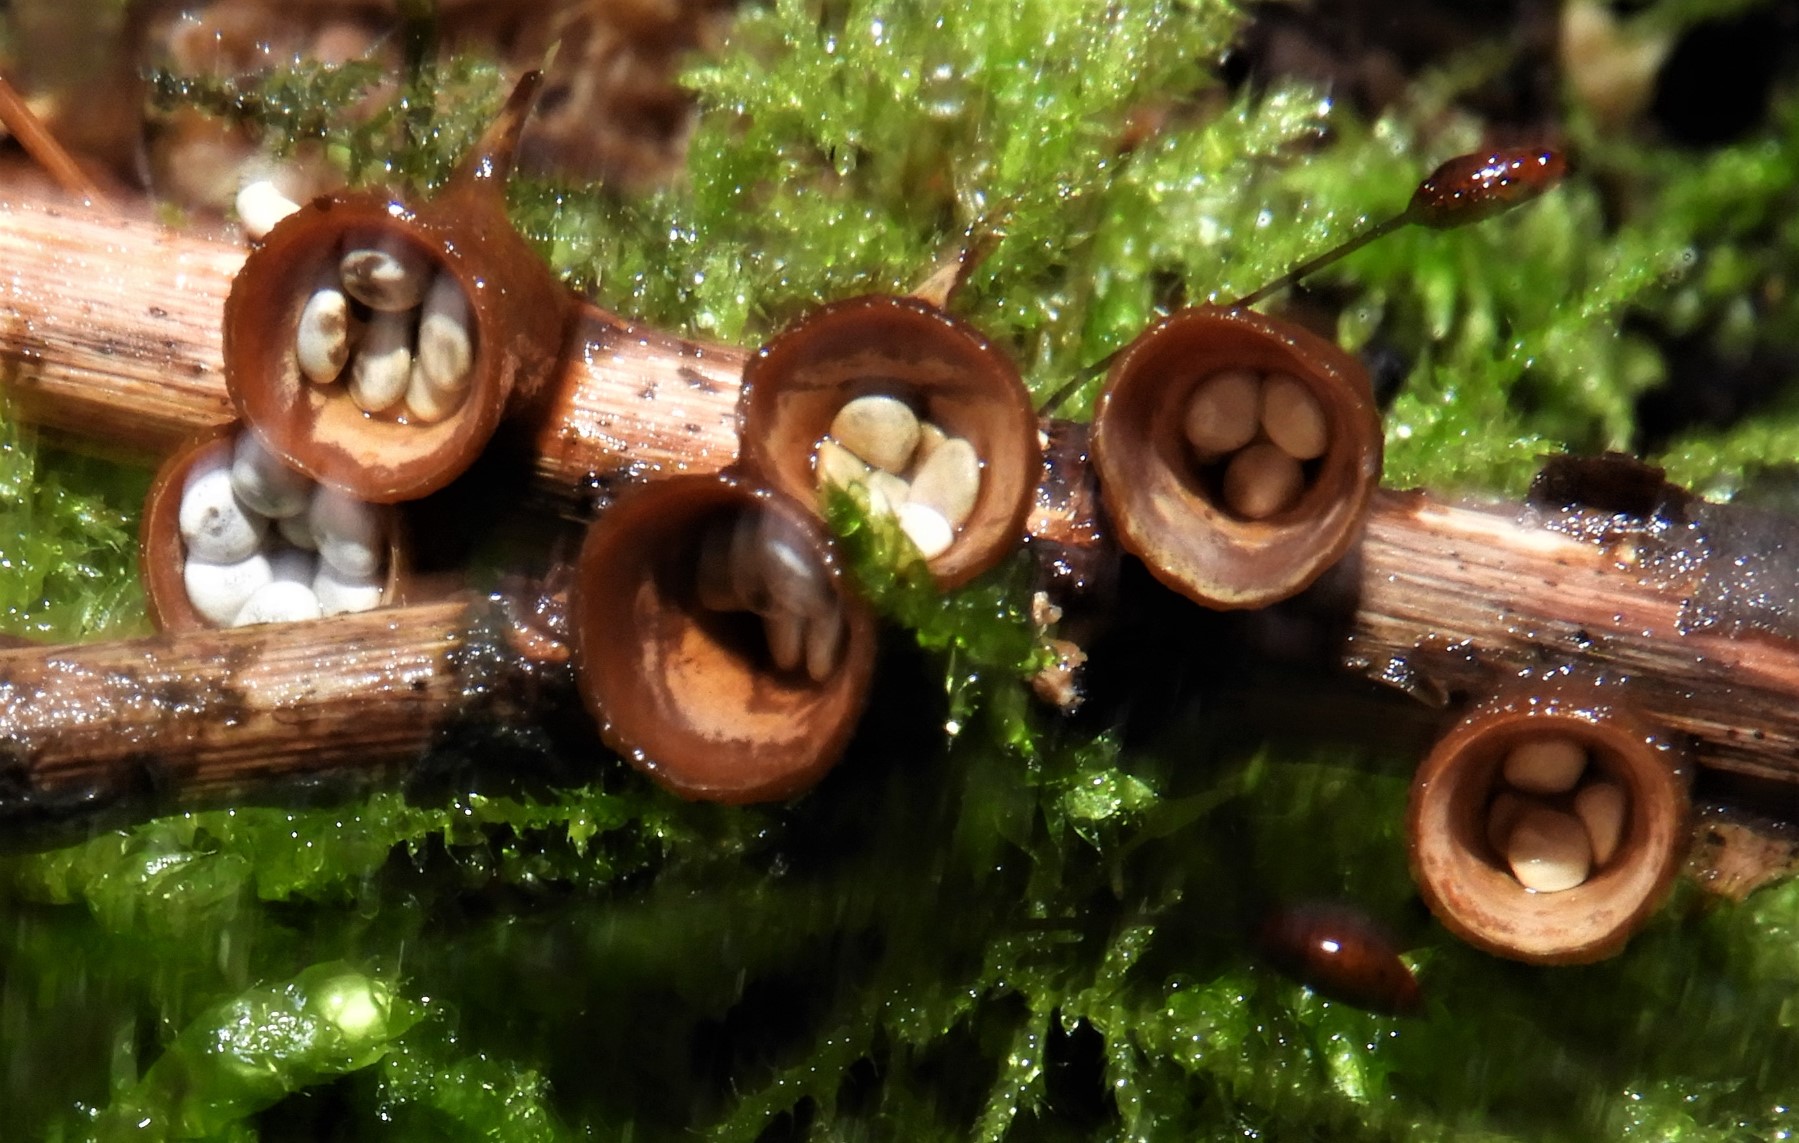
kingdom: Fungi
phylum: Basidiomycota
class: Agaricomycetes
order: Agaricales
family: Nidulariaceae
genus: Crucibulum
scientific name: Crucibulum crucibuliforme
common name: krukkesvamp
